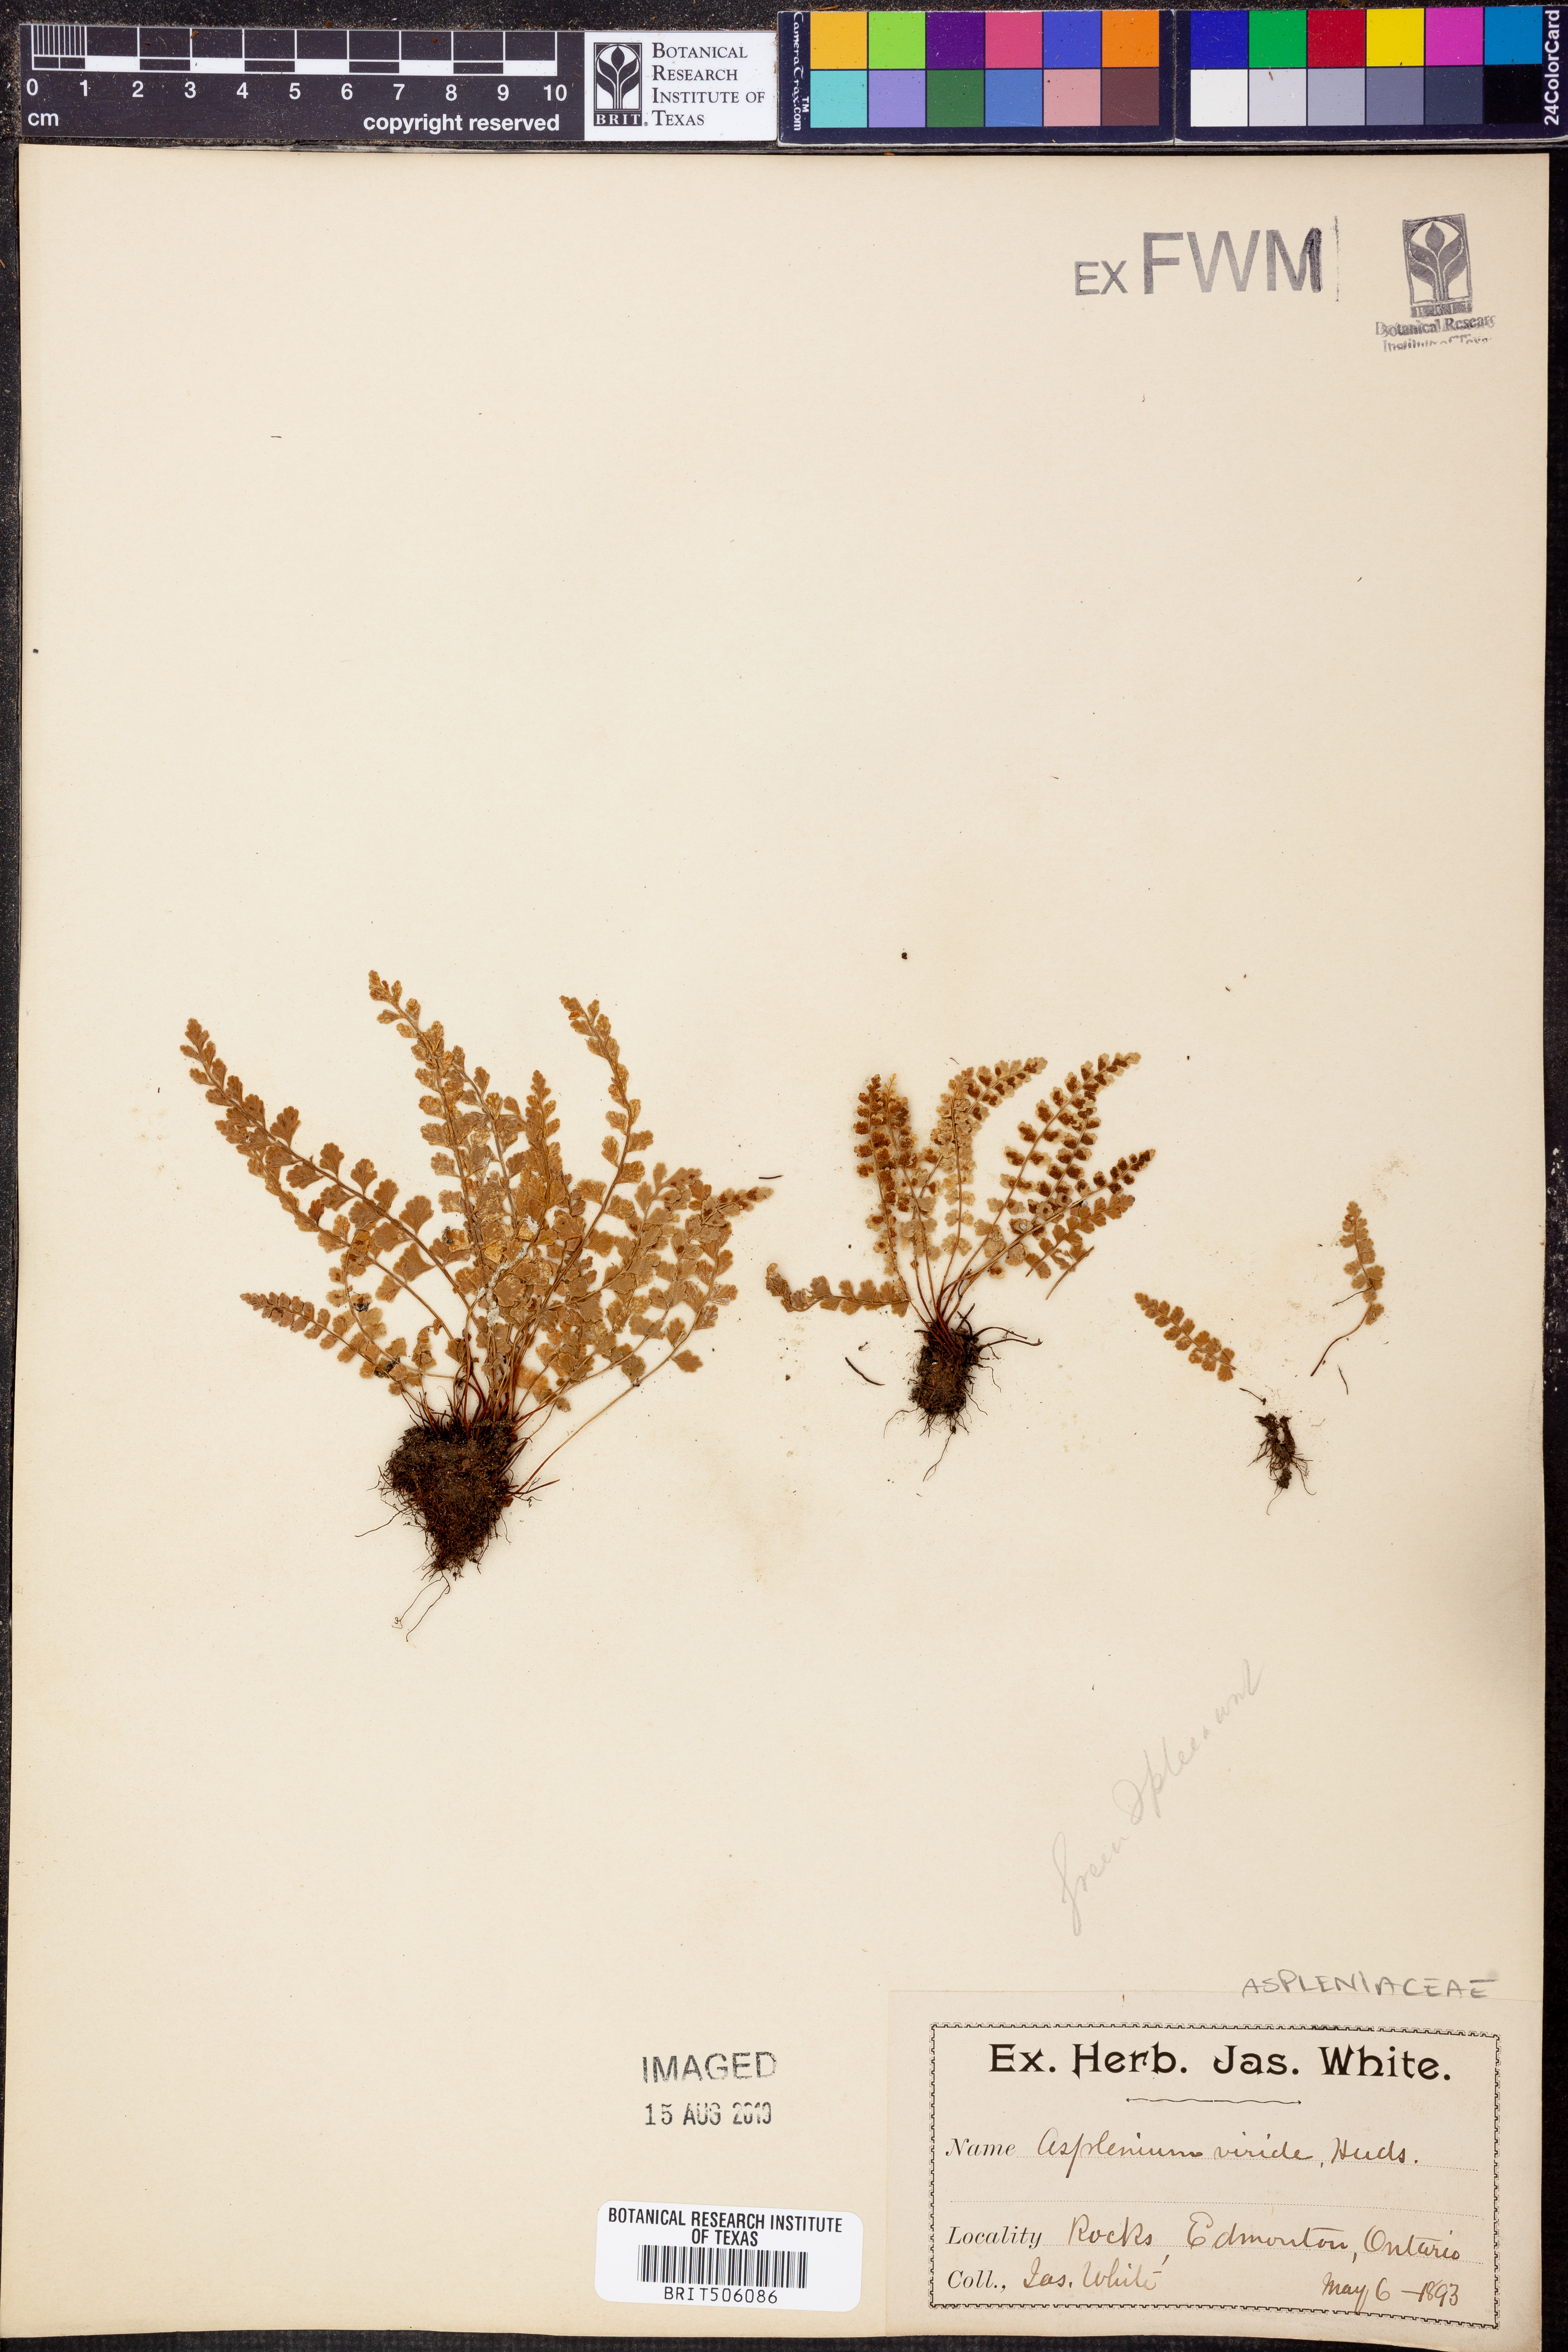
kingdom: Plantae
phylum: Tracheophyta
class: Polypodiopsida
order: Polypodiales
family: Aspleniaceae
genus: Asplenium
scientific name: Asplenium viride
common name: Green spleenwort
